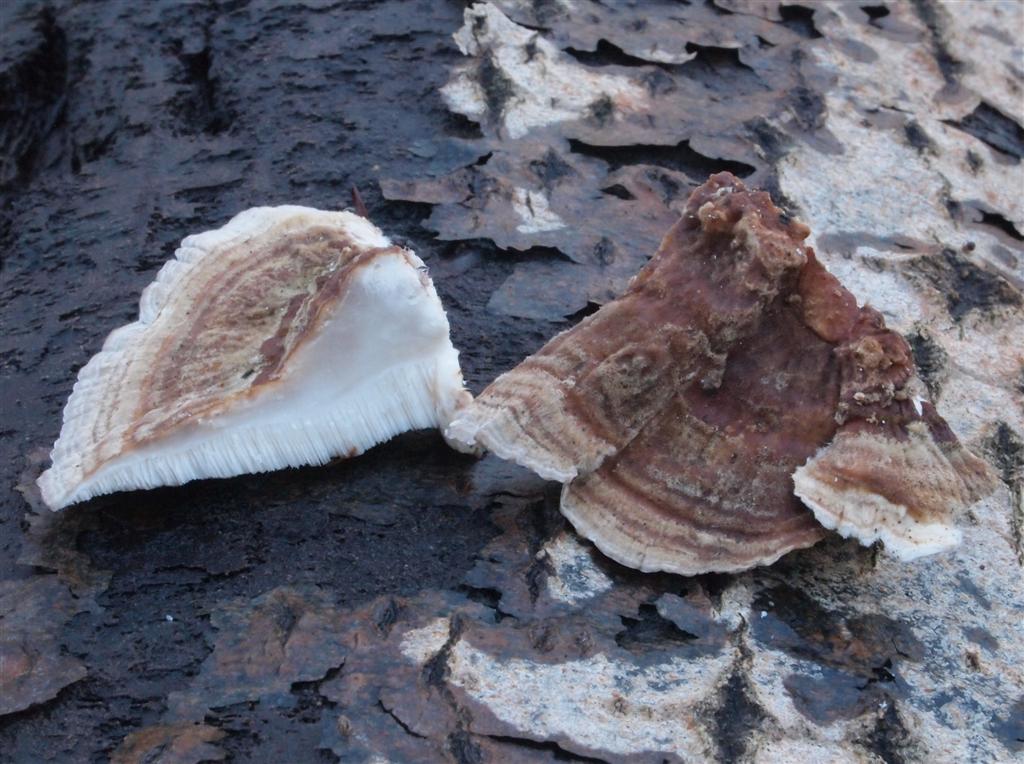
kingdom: Fungi
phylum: Basidiomycota
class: Agaricomycetes
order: Polyporales
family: Polyporaceae
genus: Trametes
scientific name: Trametes versicolor
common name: broget læderporesvamp
